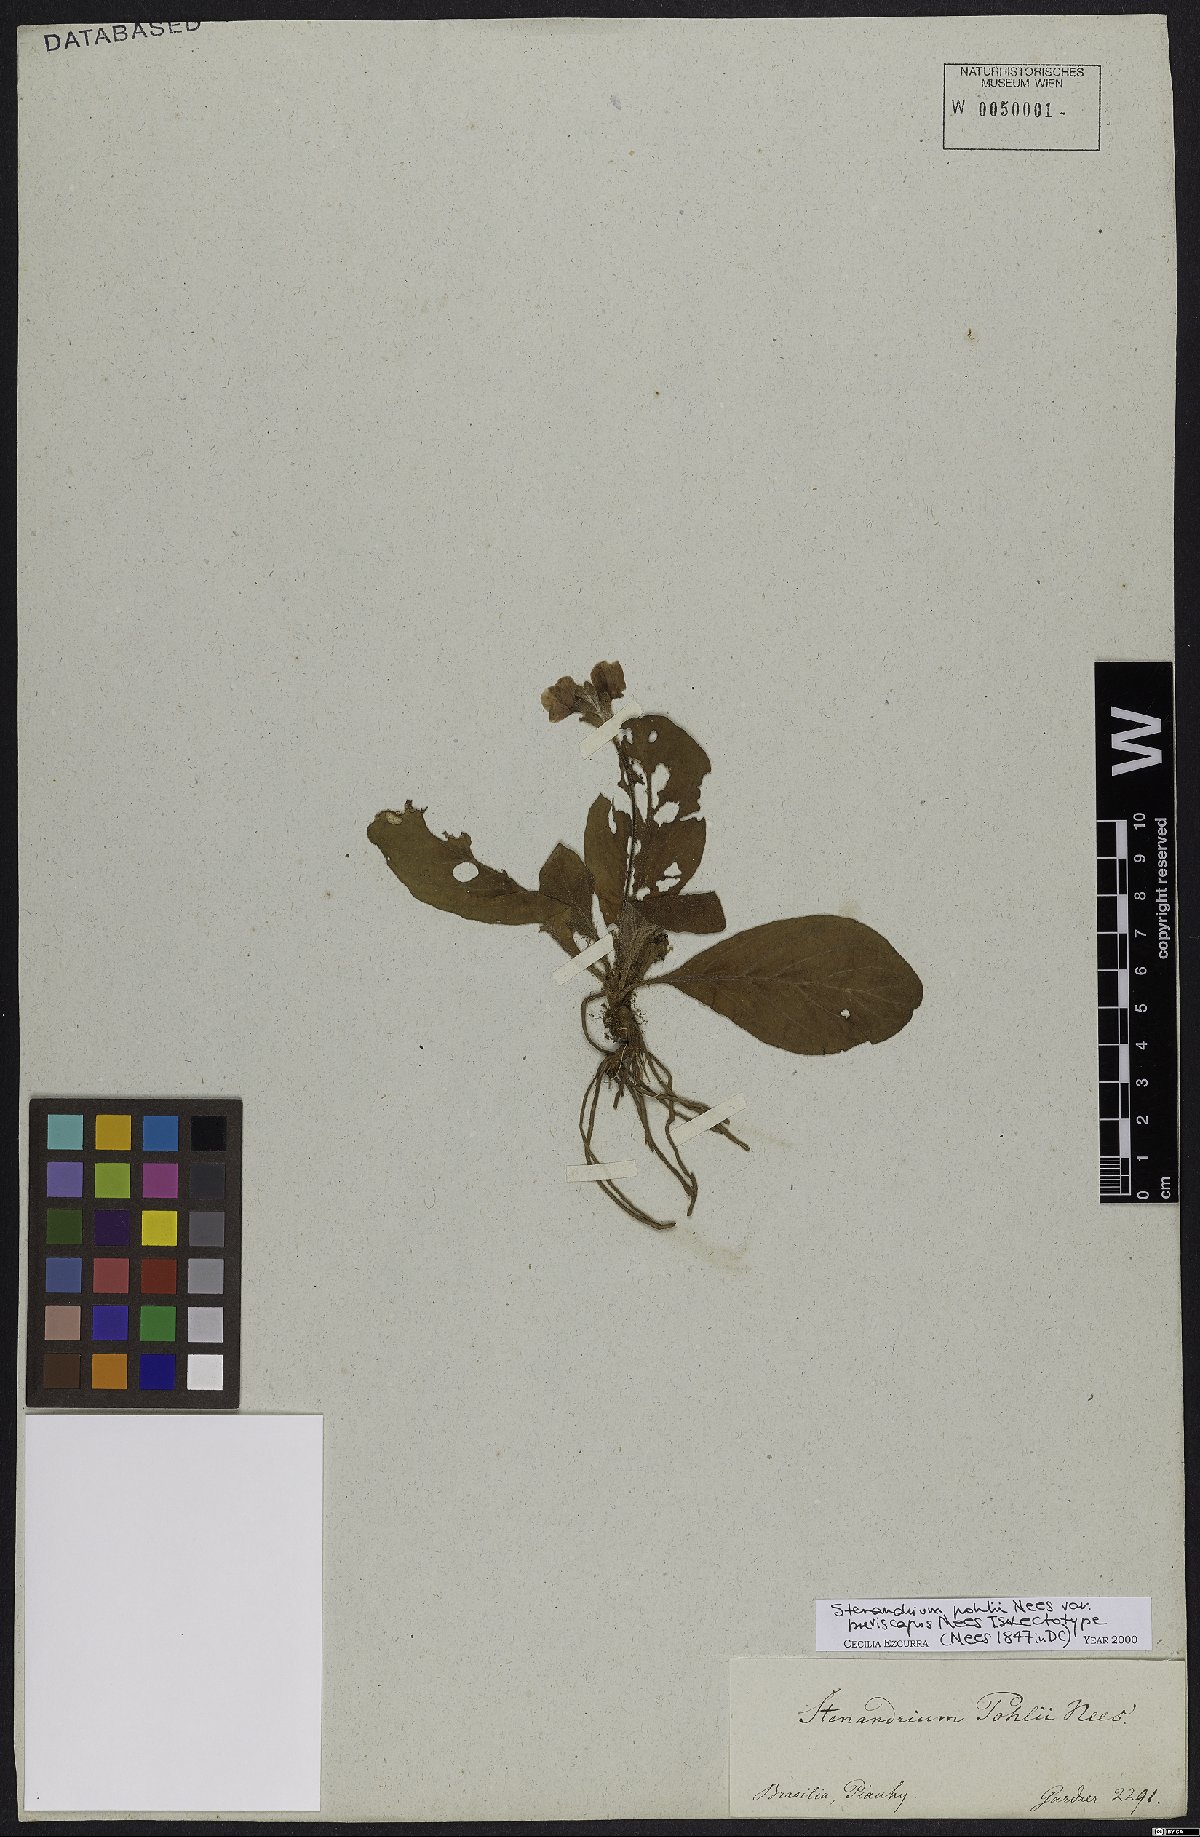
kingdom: Plantae
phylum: Tracheophyta
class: Magnoliopsida
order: Lamiales
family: Acanthaceae
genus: Stenandrium
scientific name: Stenandrium pohlii
